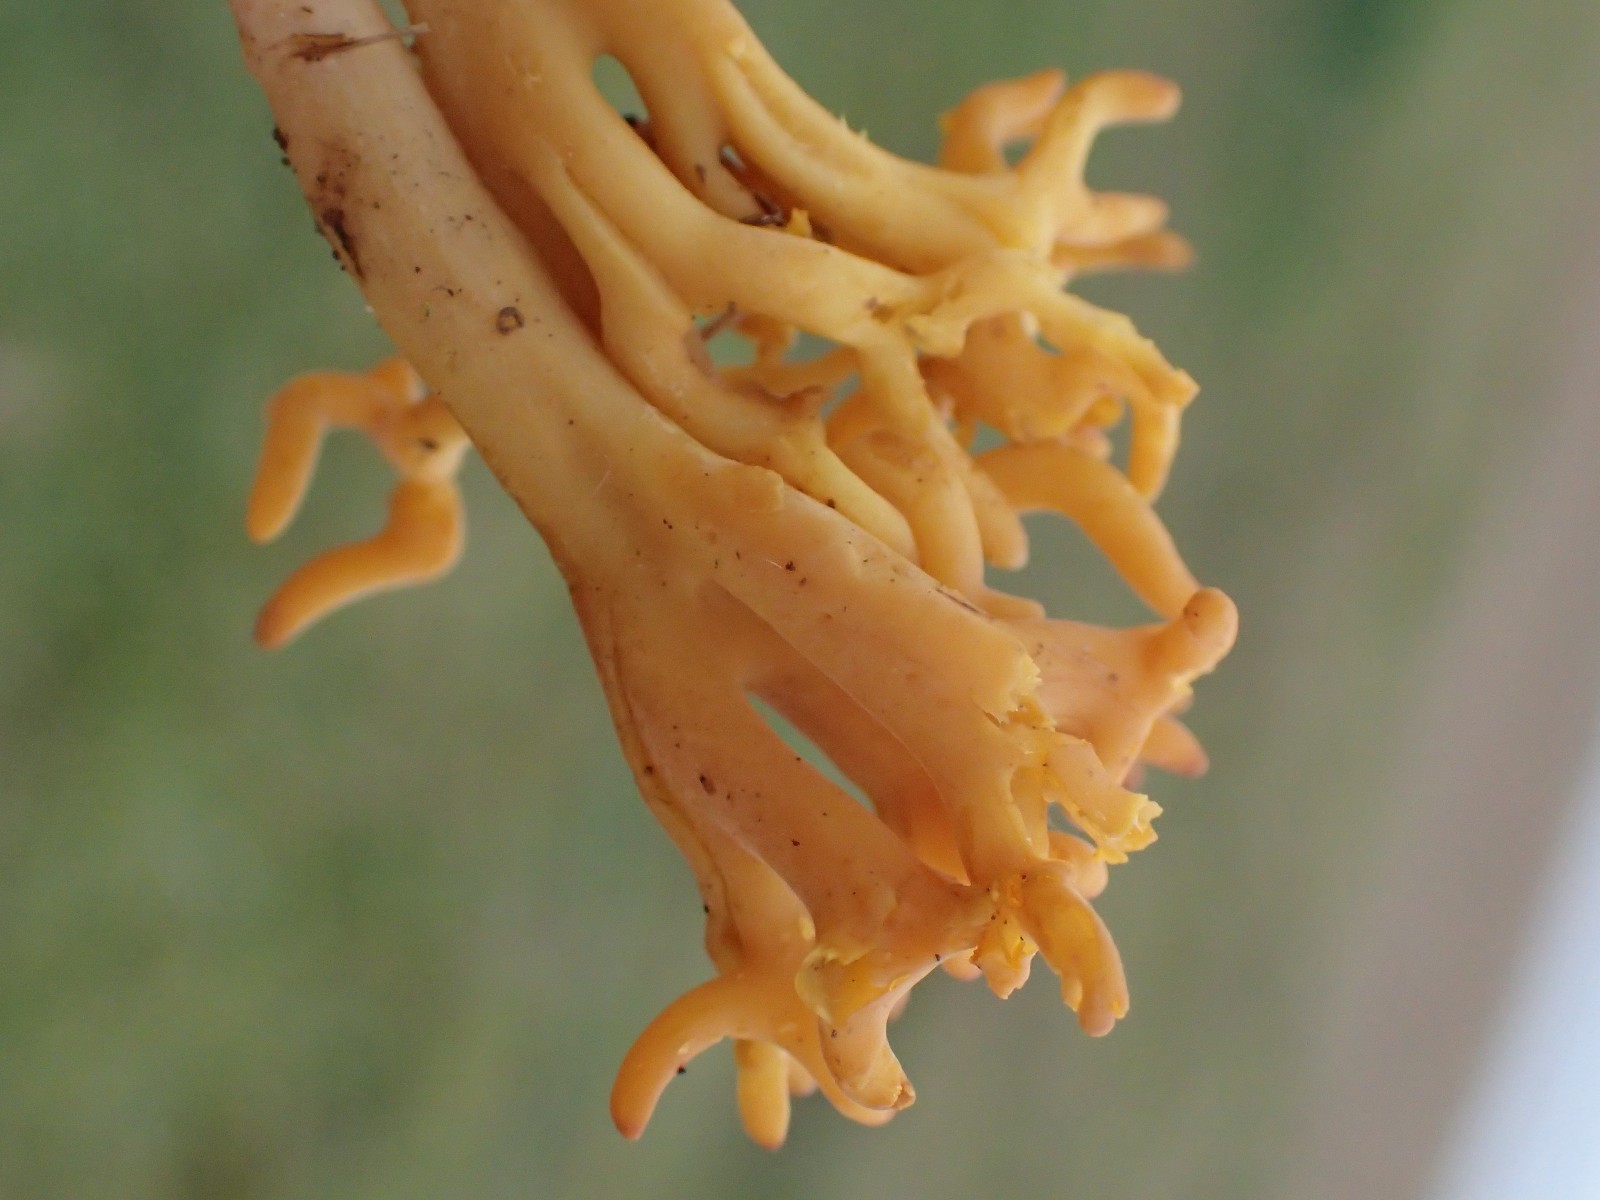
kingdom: Fungi
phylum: Basidiomycota
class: Agaricomycetes
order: Agaricales
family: Clavariaceae
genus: Clavulinopsis
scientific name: Clavulinopsis corniculata
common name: eng-køllesvamp
